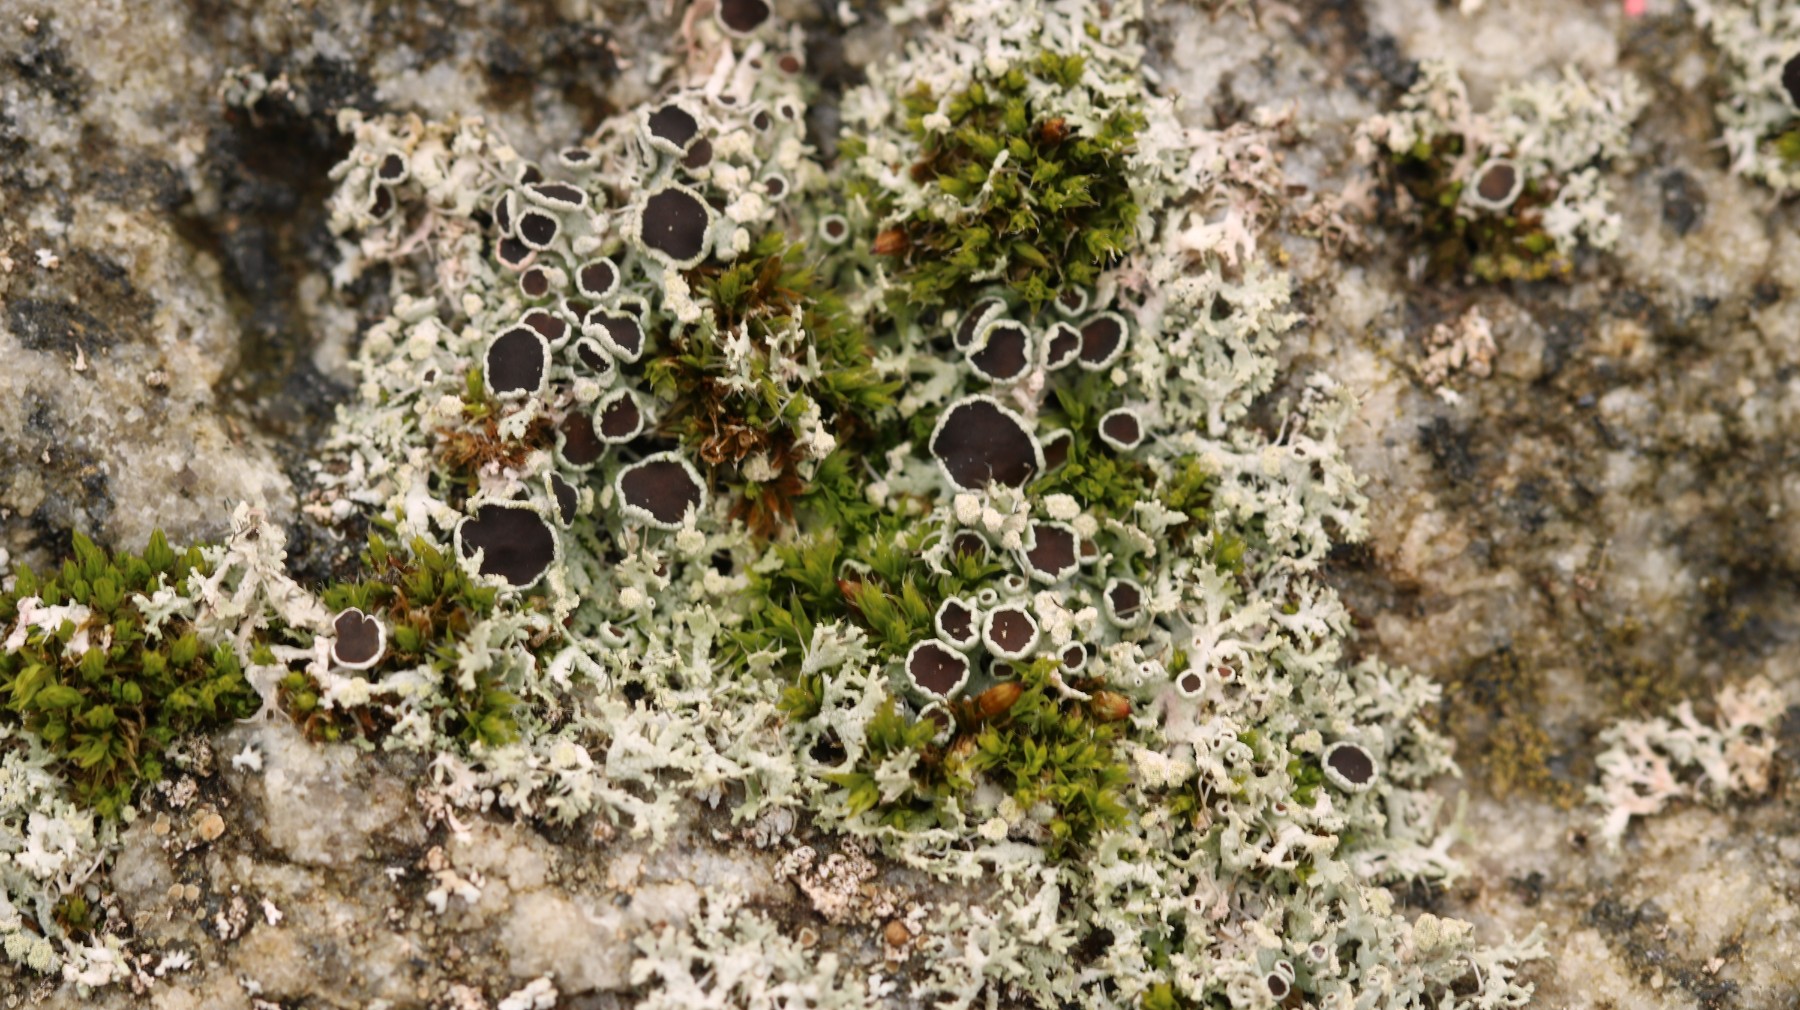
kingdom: Fungi
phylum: Ascomycota
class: Lecanoromycetes
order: Caliciales
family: Physciaceae
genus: Physcia
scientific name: Physcia tenella
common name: spæd rosetlav
